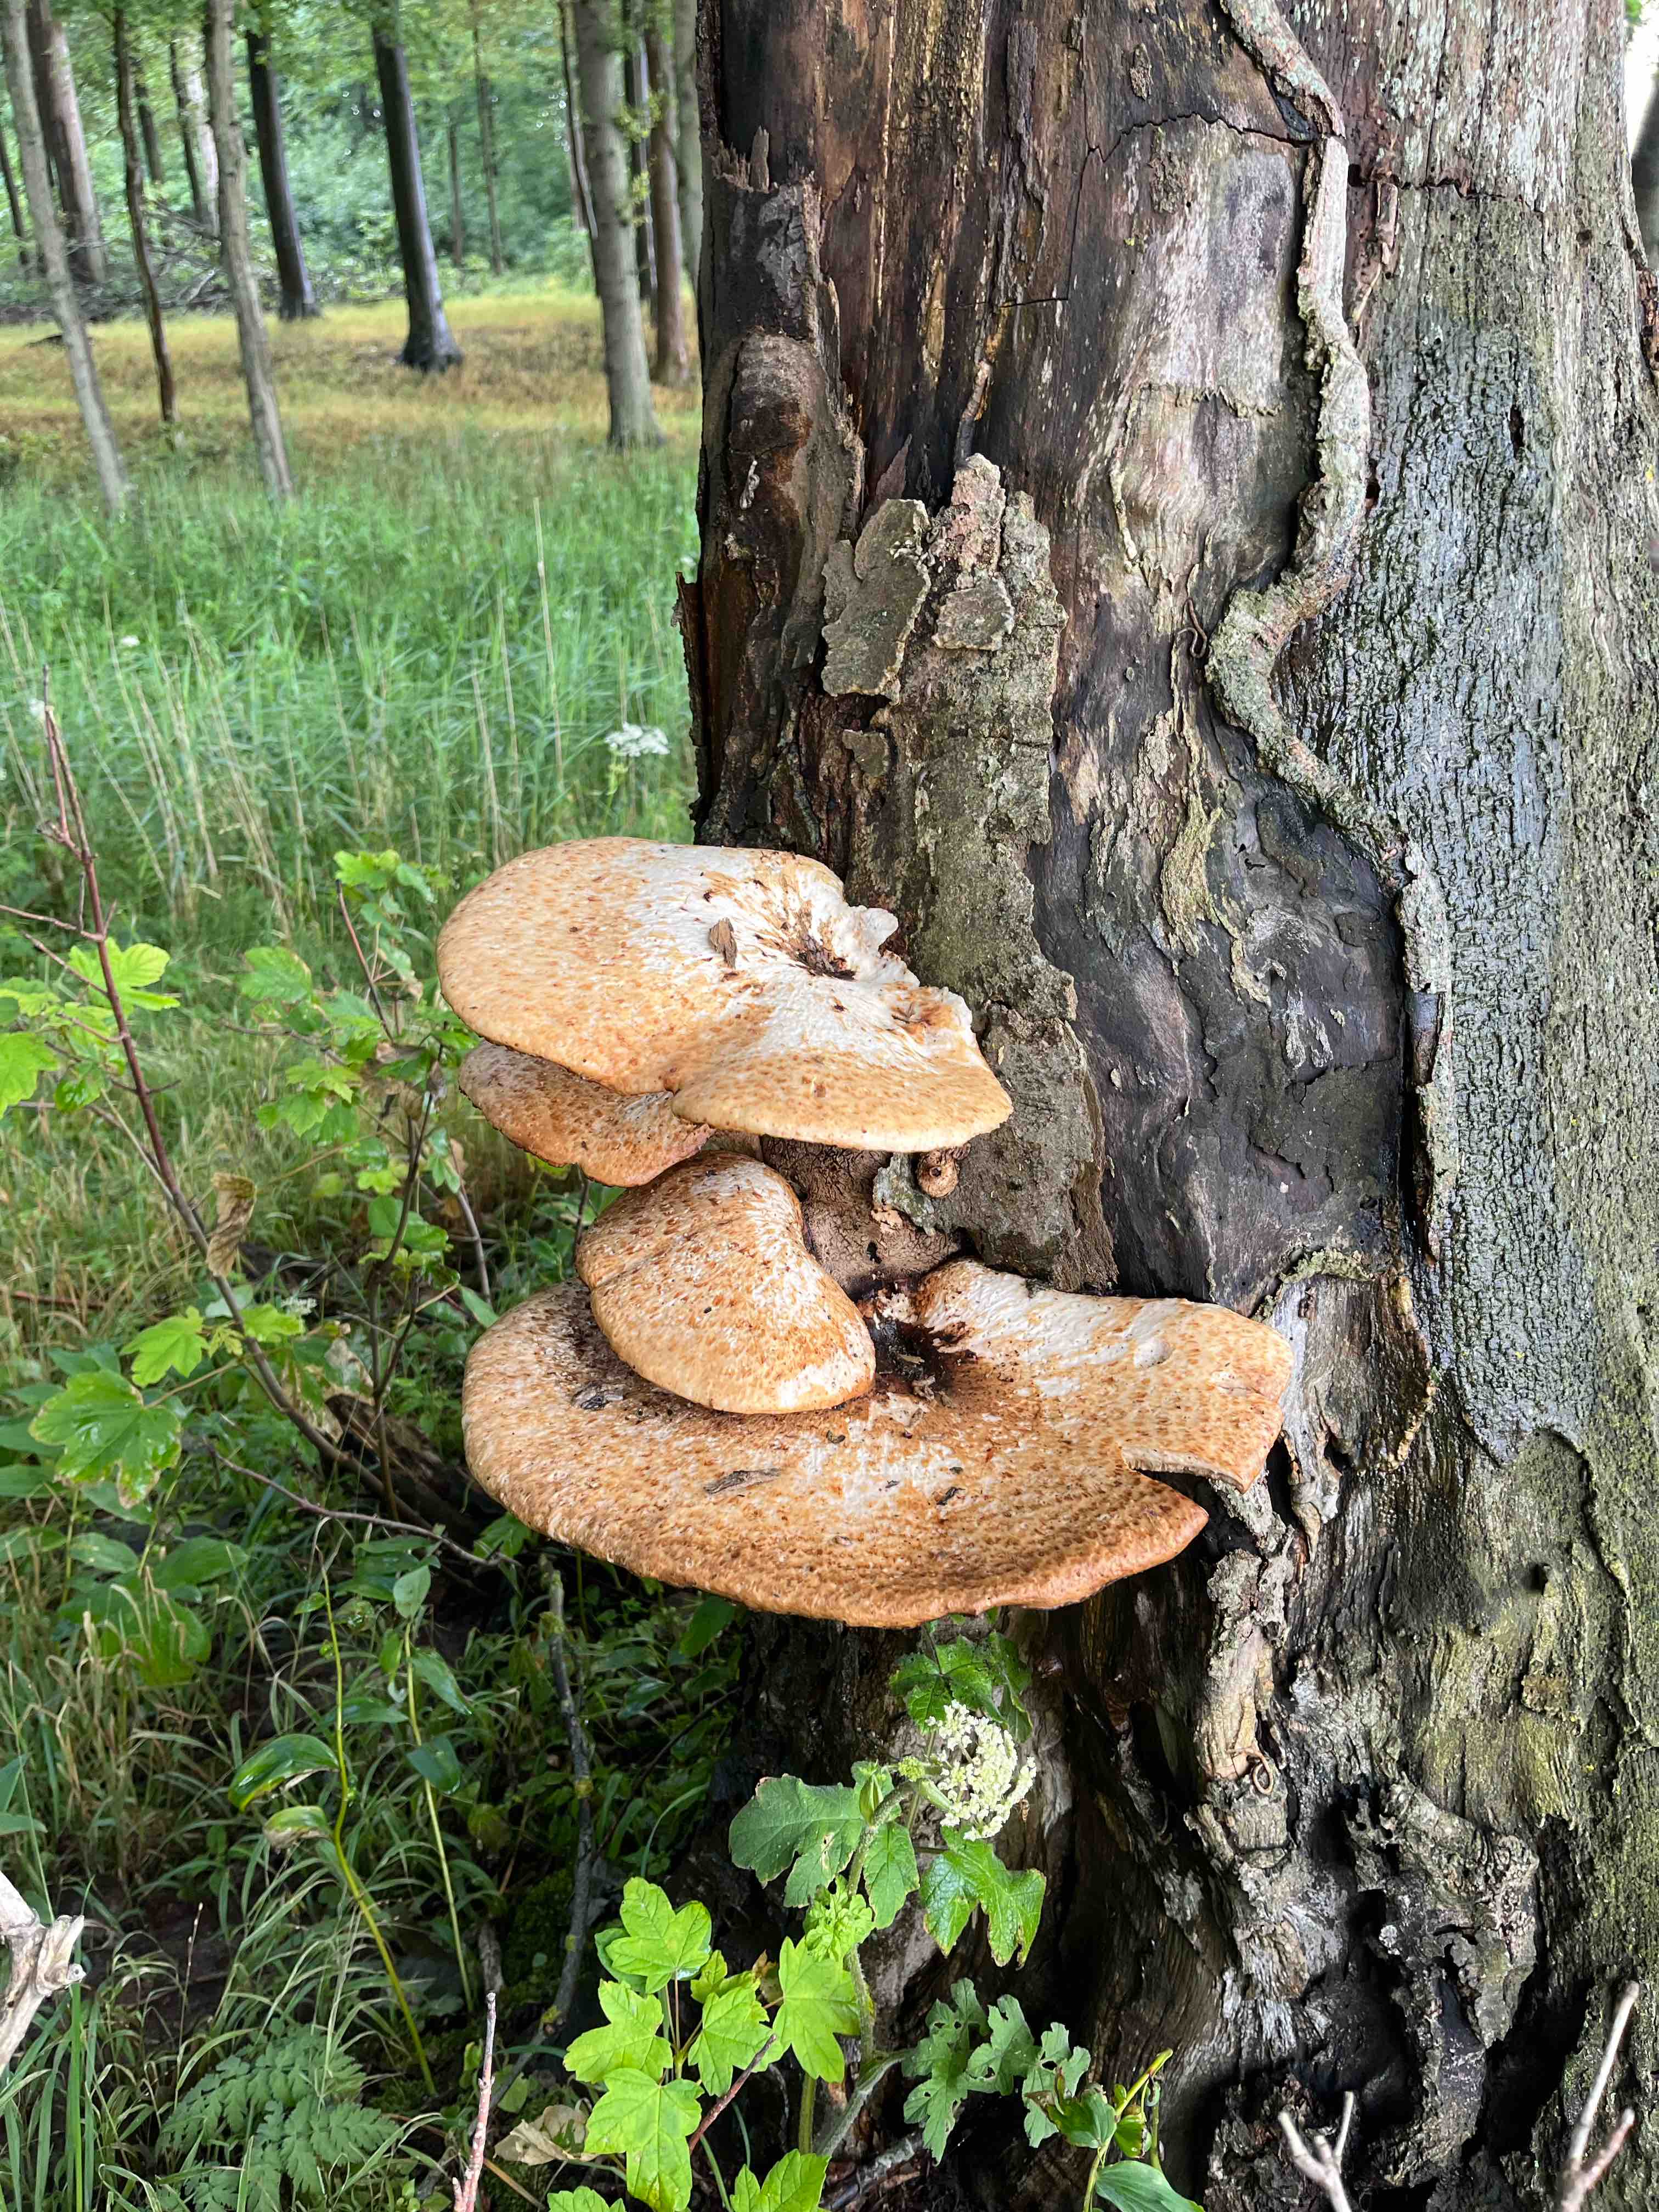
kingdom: Fungi
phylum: Basidiomycota
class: Agaricomycetes
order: Polyporales
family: Polyporaceae
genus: Cerioporus
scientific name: Cerioporus squamosus
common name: skællet stilkporesvamp
